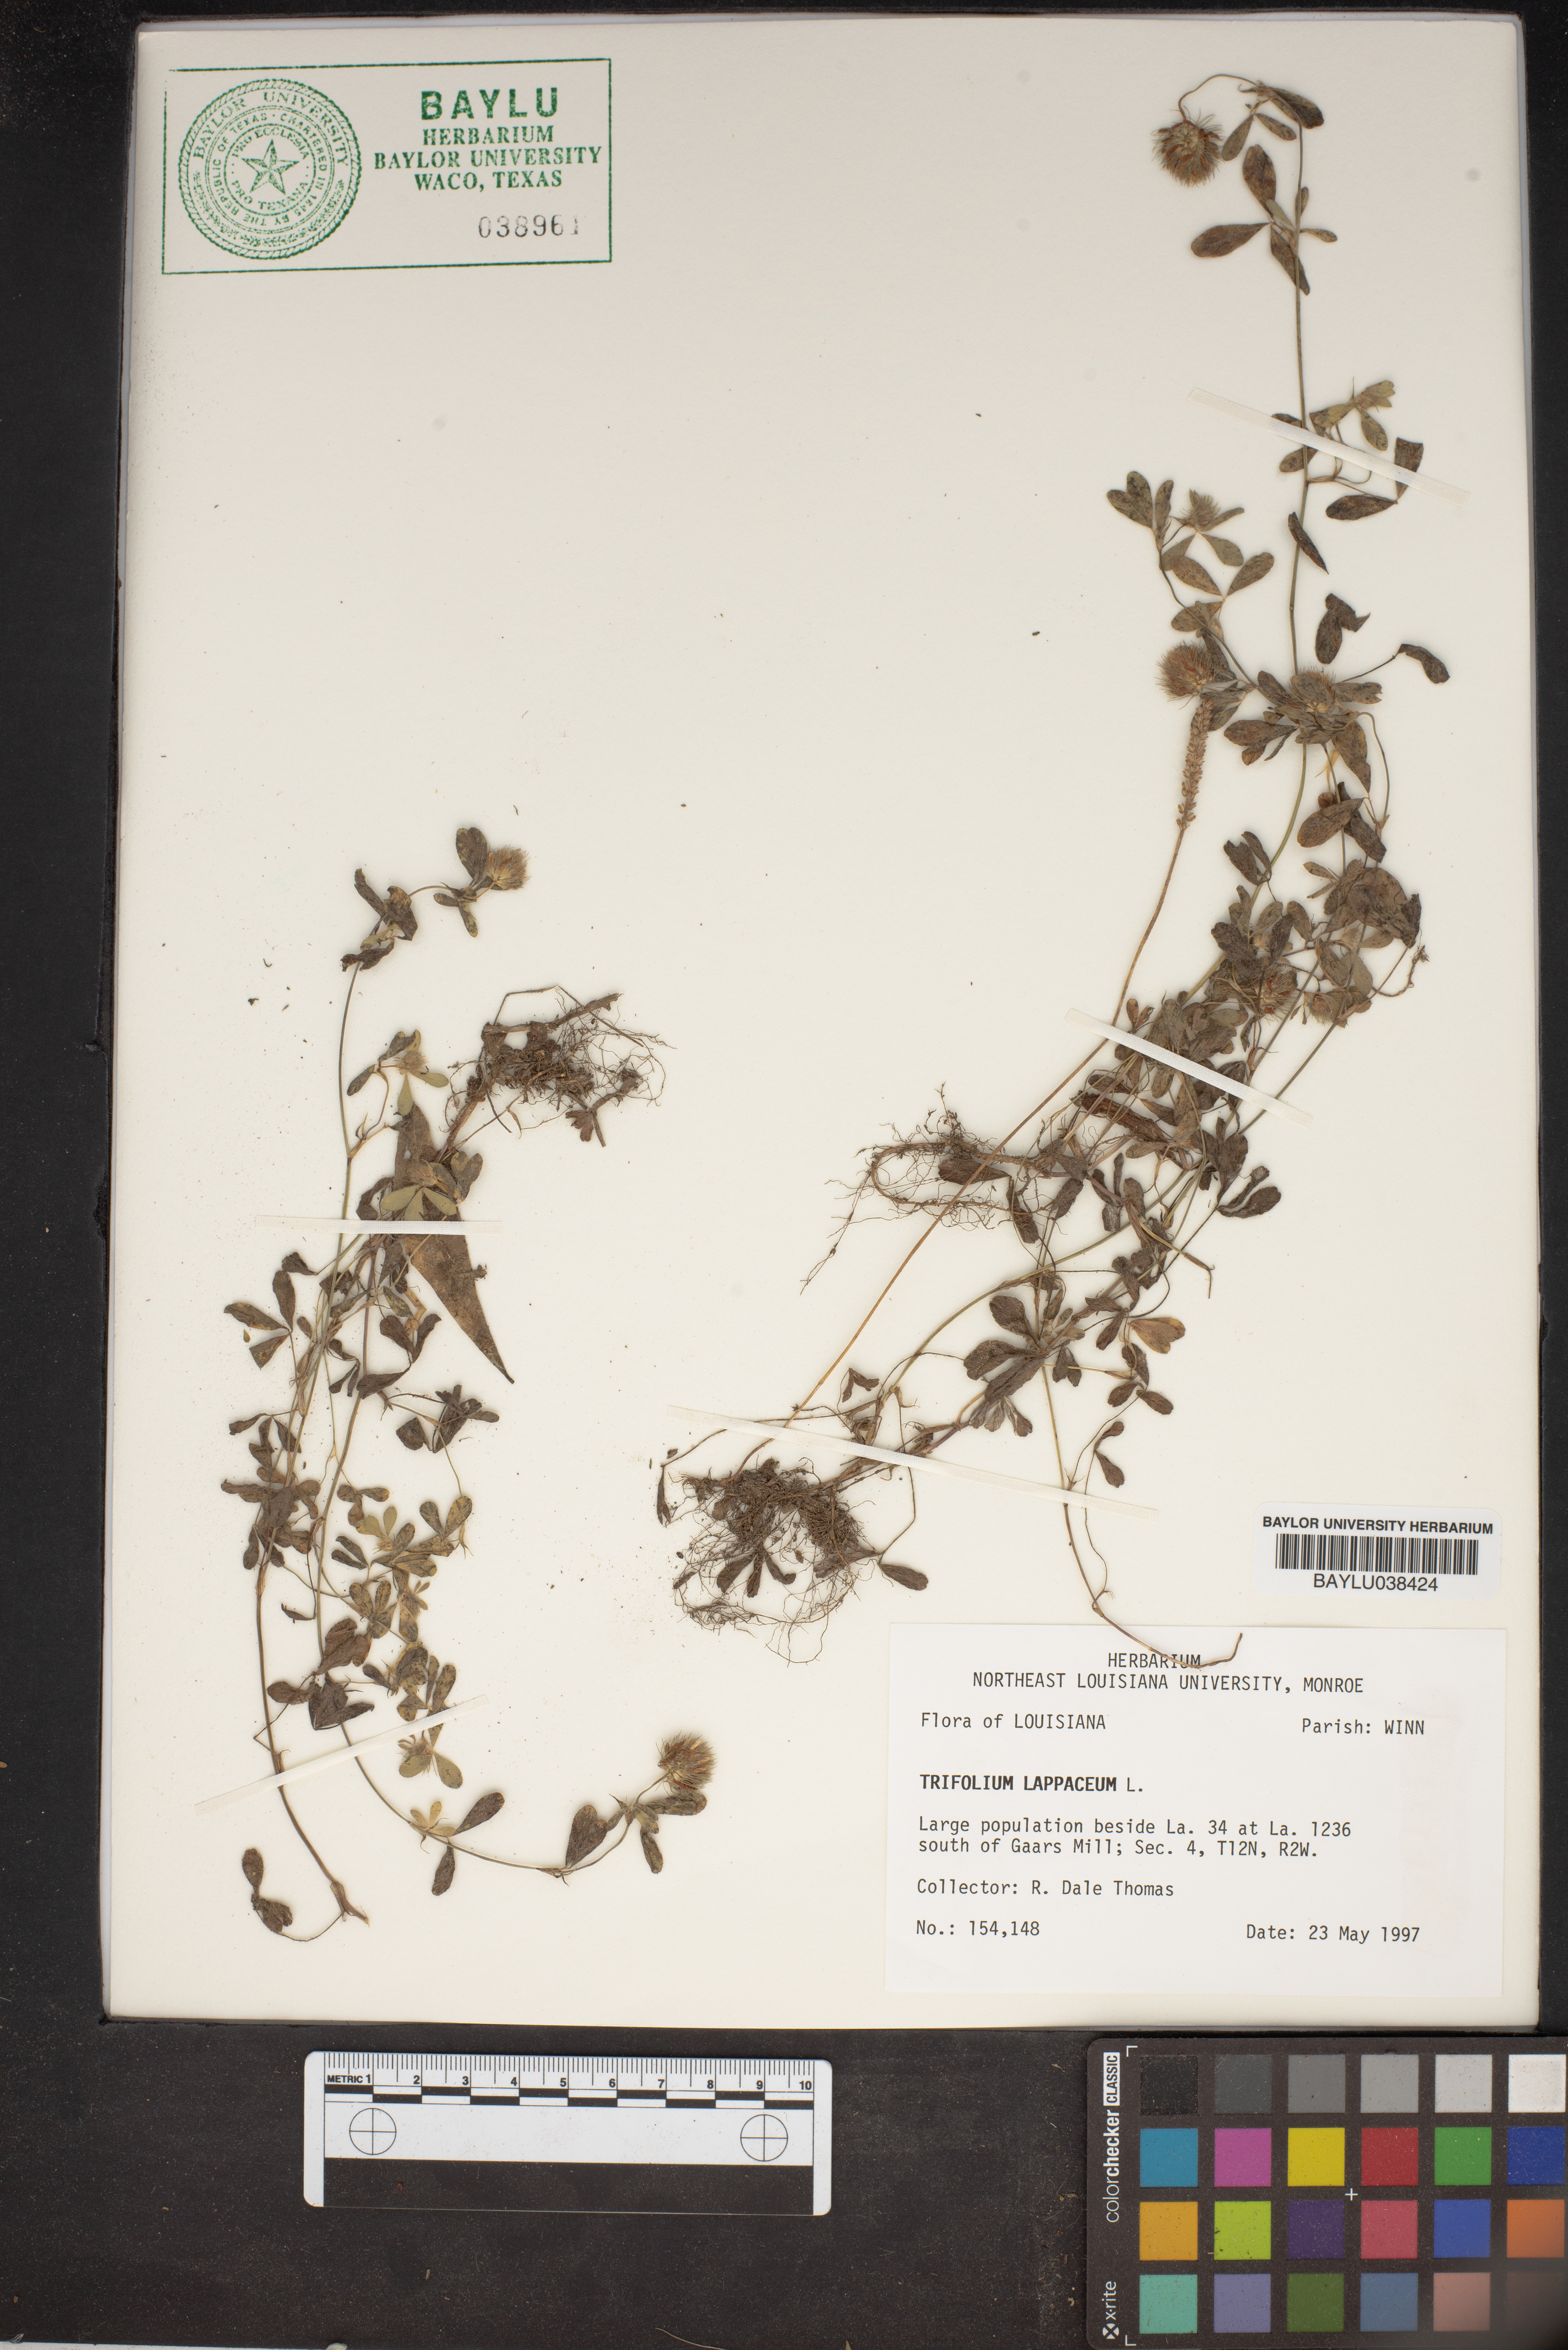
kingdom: Plantae
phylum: Tracheophyta
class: Magnoliopsida
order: Fabales
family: Fabaceae
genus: Trifolium
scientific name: Trifolium lappaceum
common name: Bur clover
